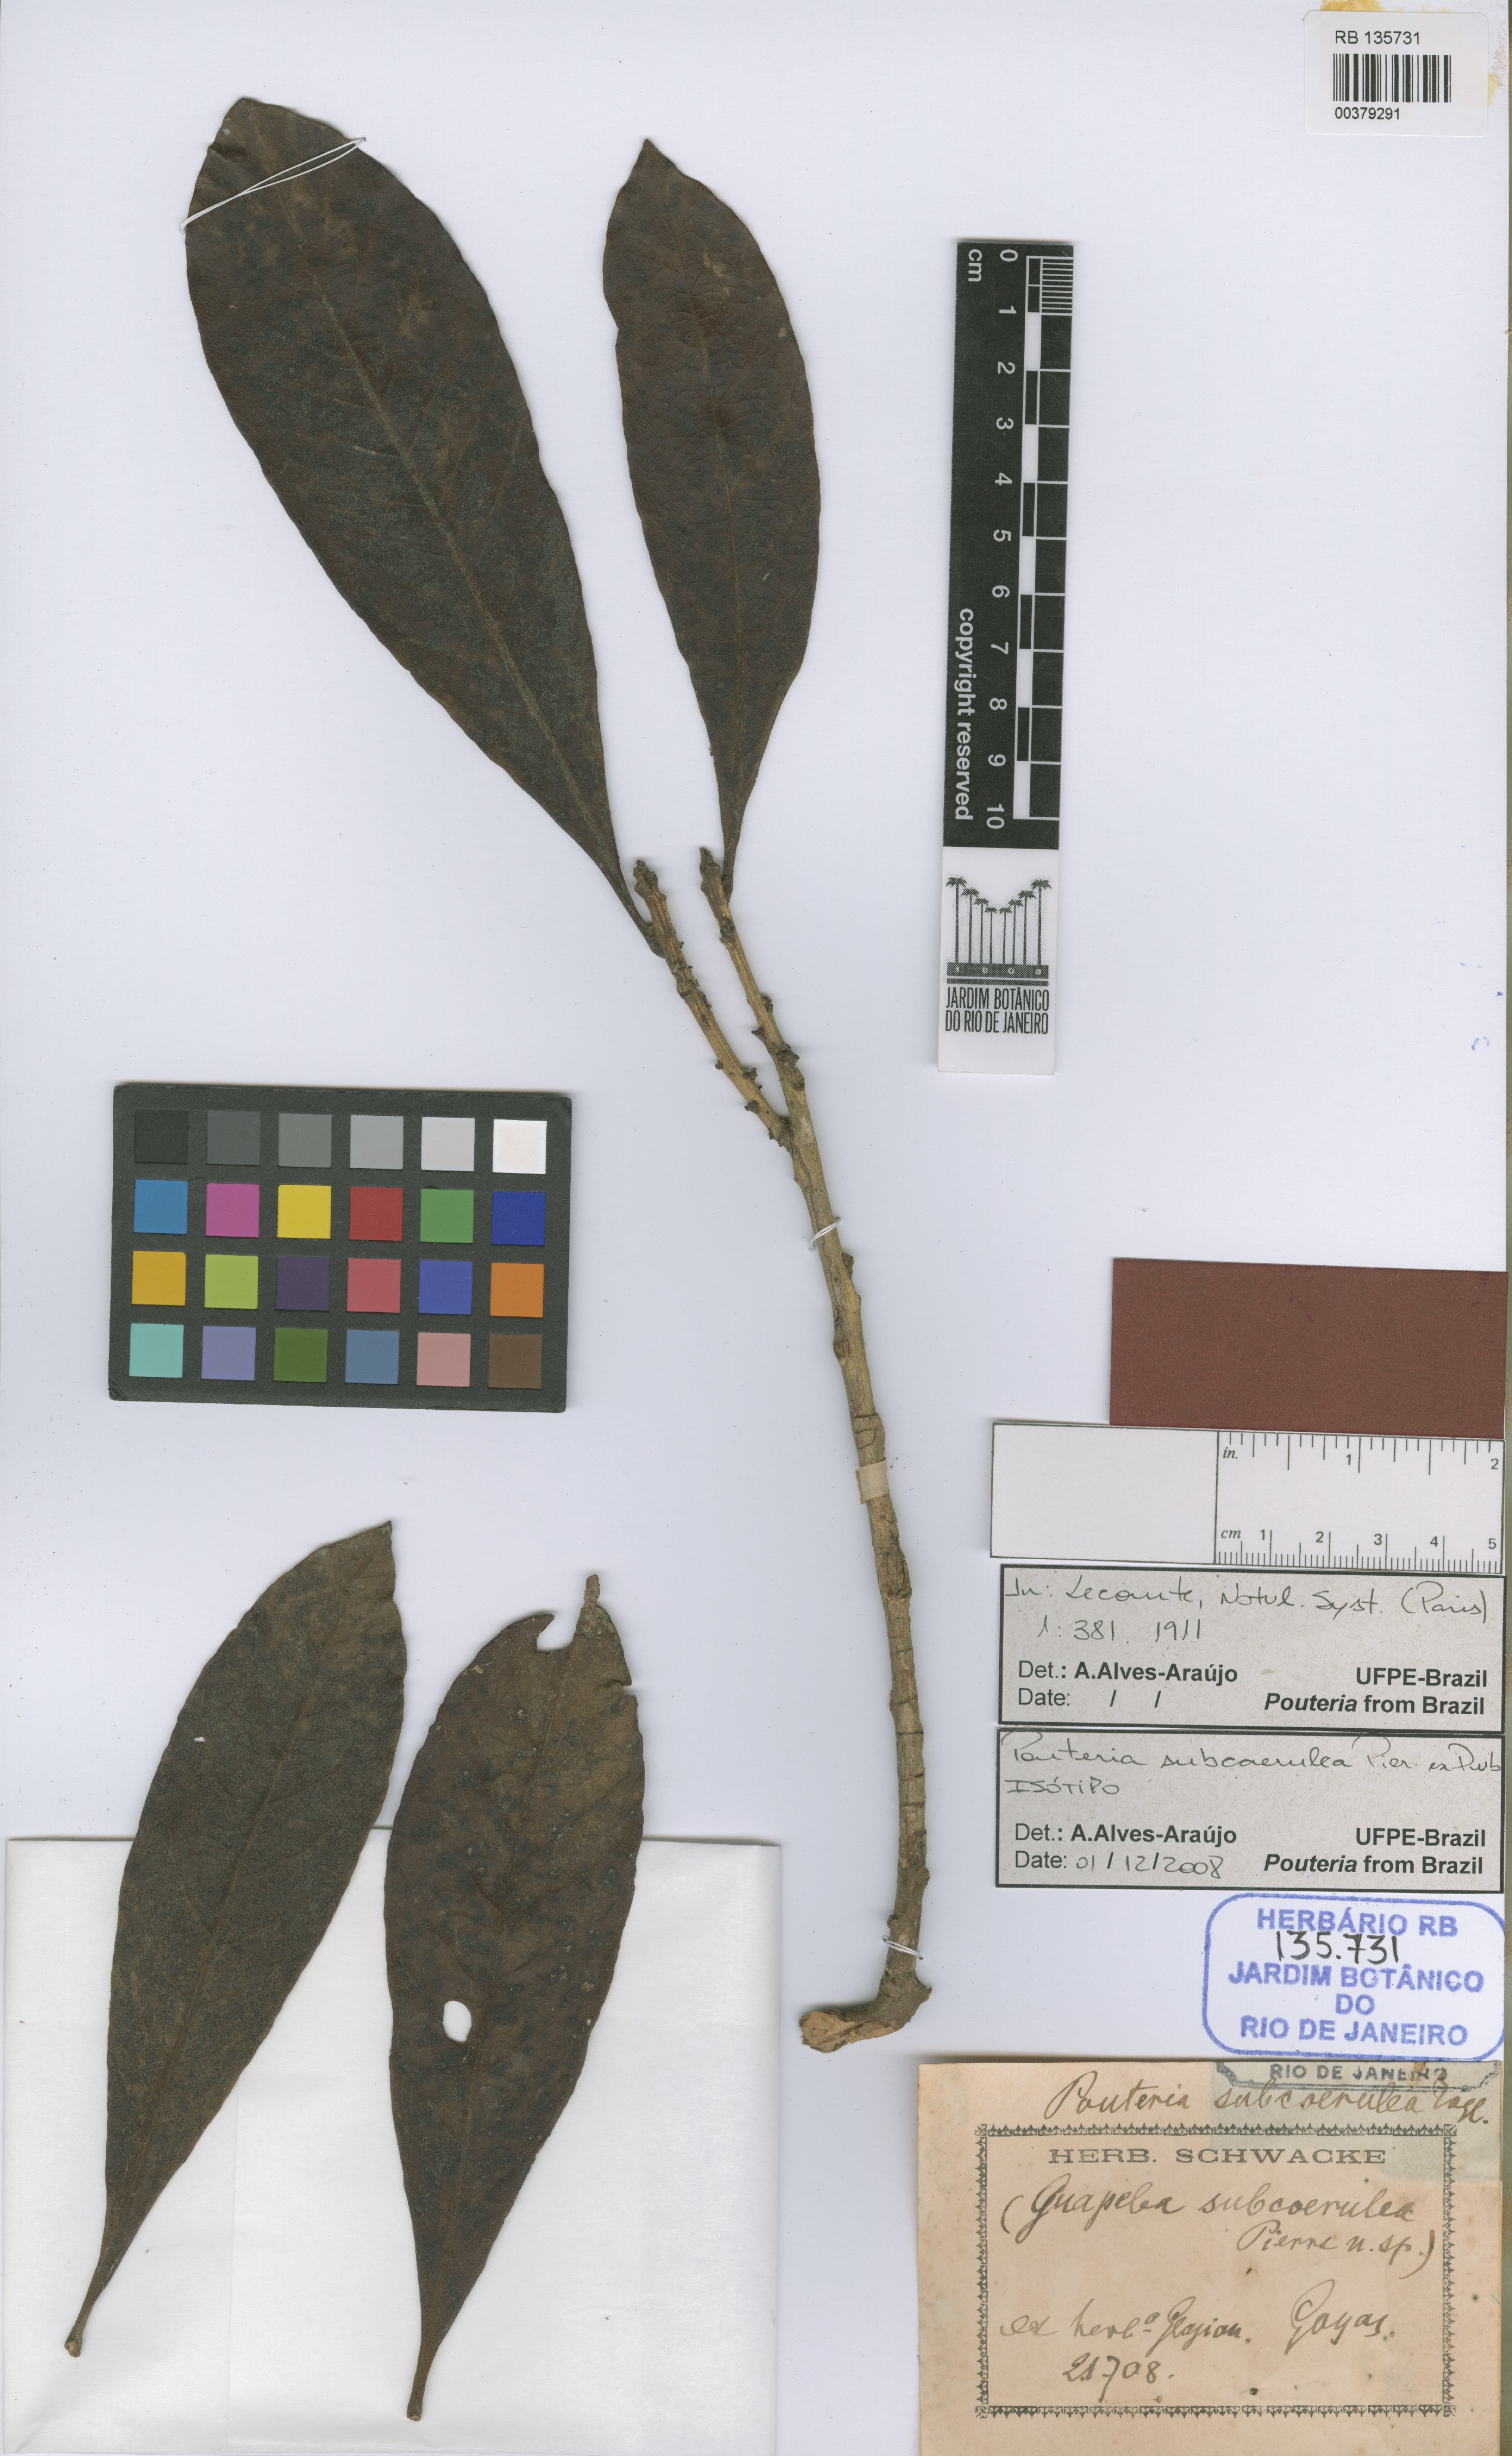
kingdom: Plantae
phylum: Tracheophyta
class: Magnoliopsida
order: Ericales
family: Sapotaceae
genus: Pouteria
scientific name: Pouteria subcaerulea
